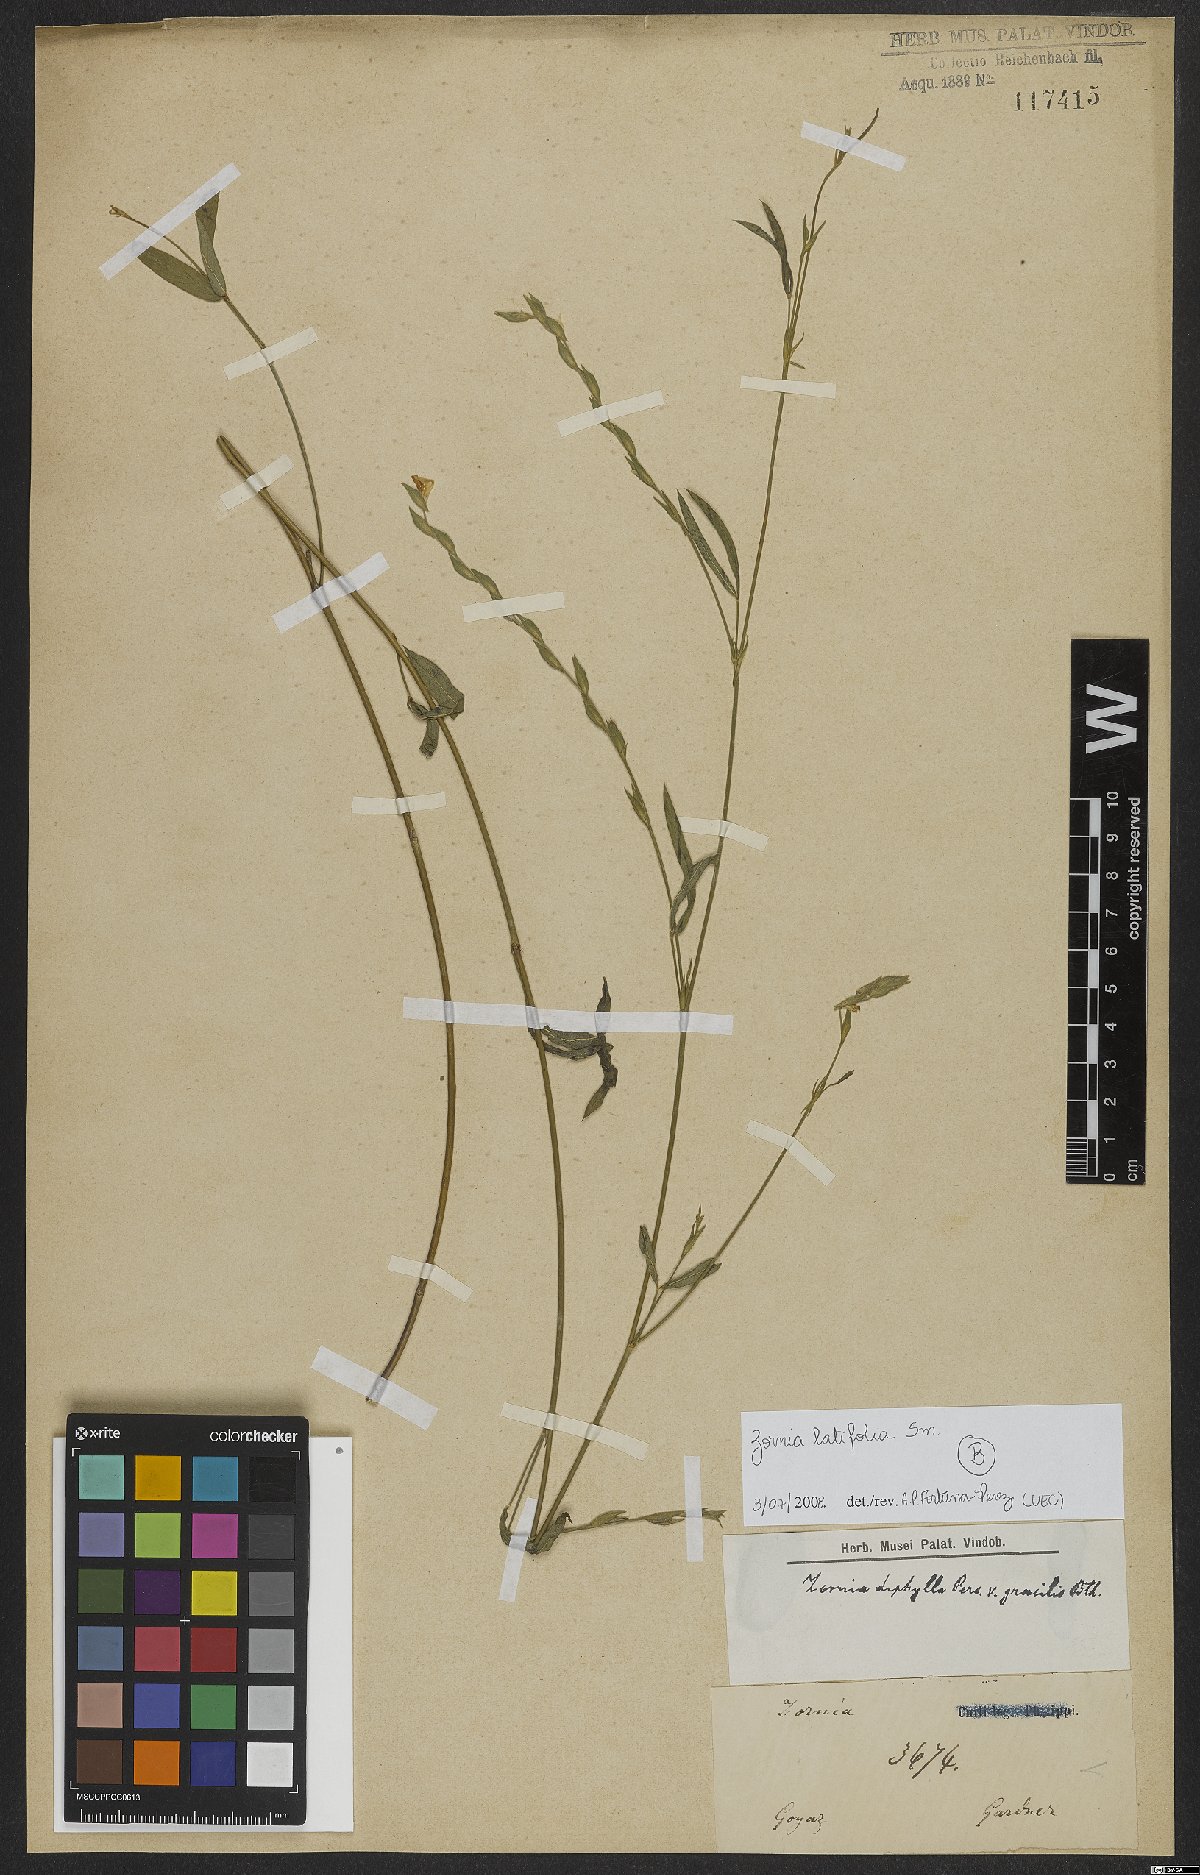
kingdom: Plantae
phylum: Tracheophyta
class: Magnoliopsida
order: Fabales
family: Fabaceae
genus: Zornia
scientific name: Zornia sericea
